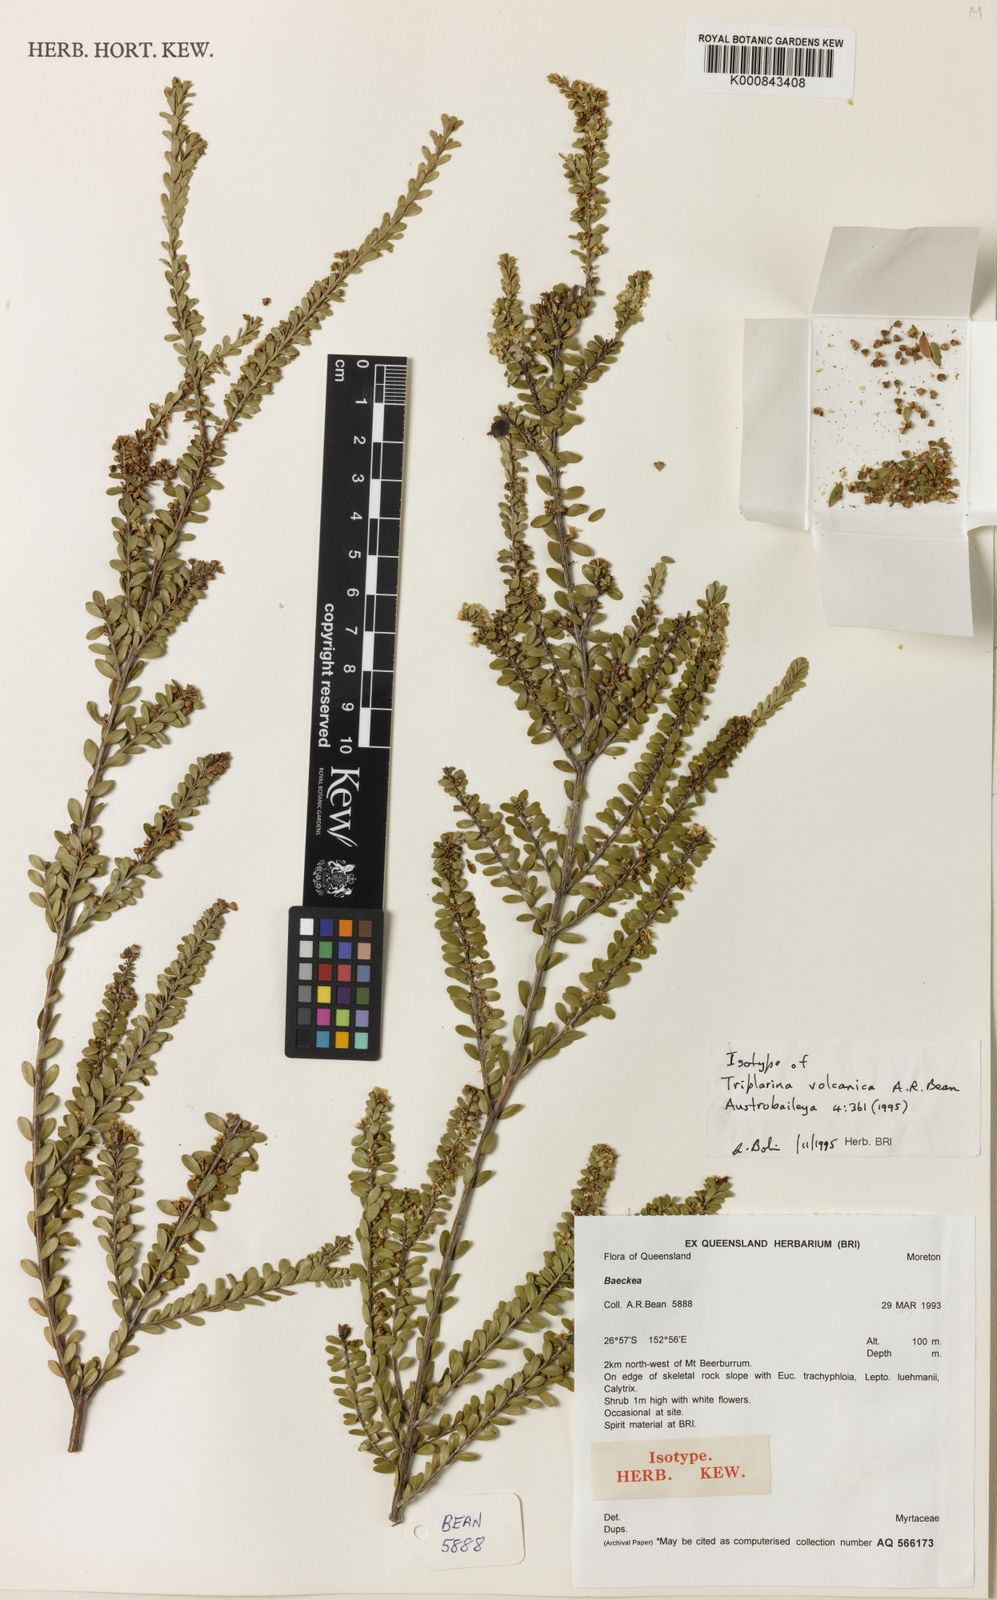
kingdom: Plantae
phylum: Tracheophyta
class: Magnoliopsida
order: Myrtales
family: Myrtaceae
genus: Triplarina
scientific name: Triplarina volcanica
